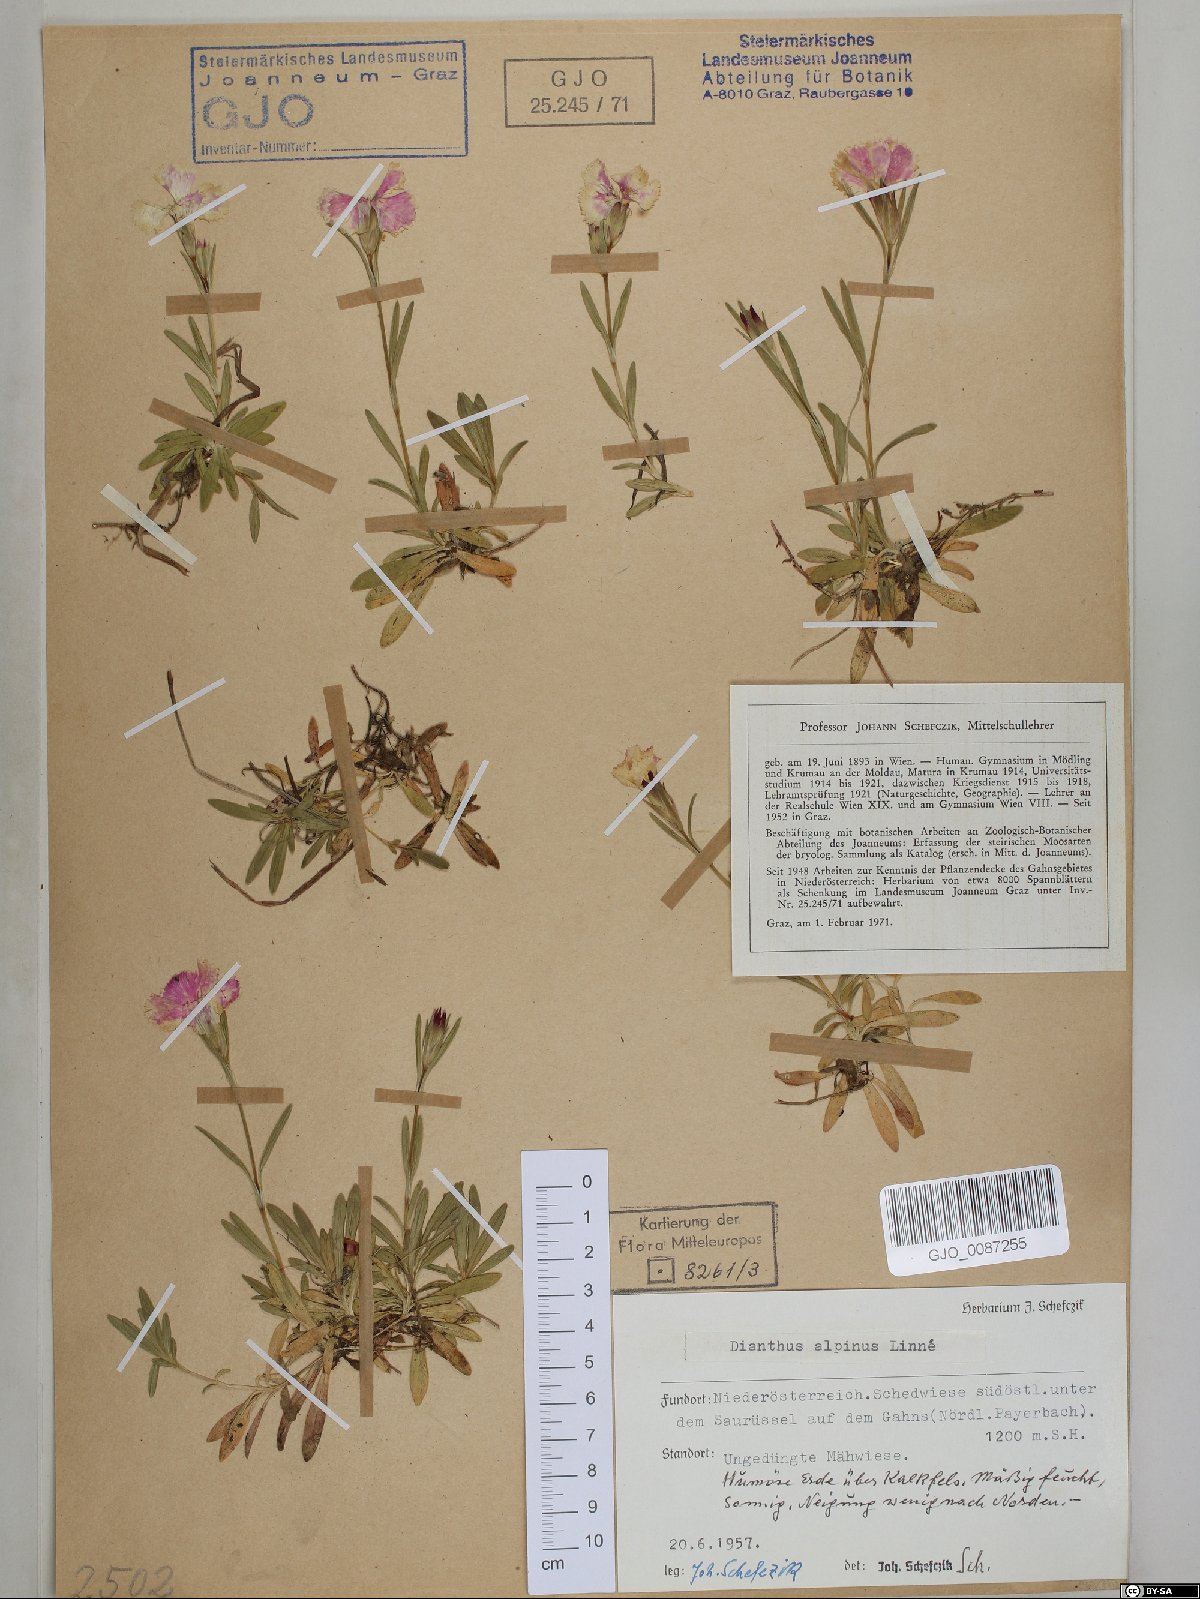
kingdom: Plantae
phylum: Tracheophyta
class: Magnoliopsida
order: Caryophyllales
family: Caryophyllaceae
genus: Dianthus
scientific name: Dianthus alpinus
